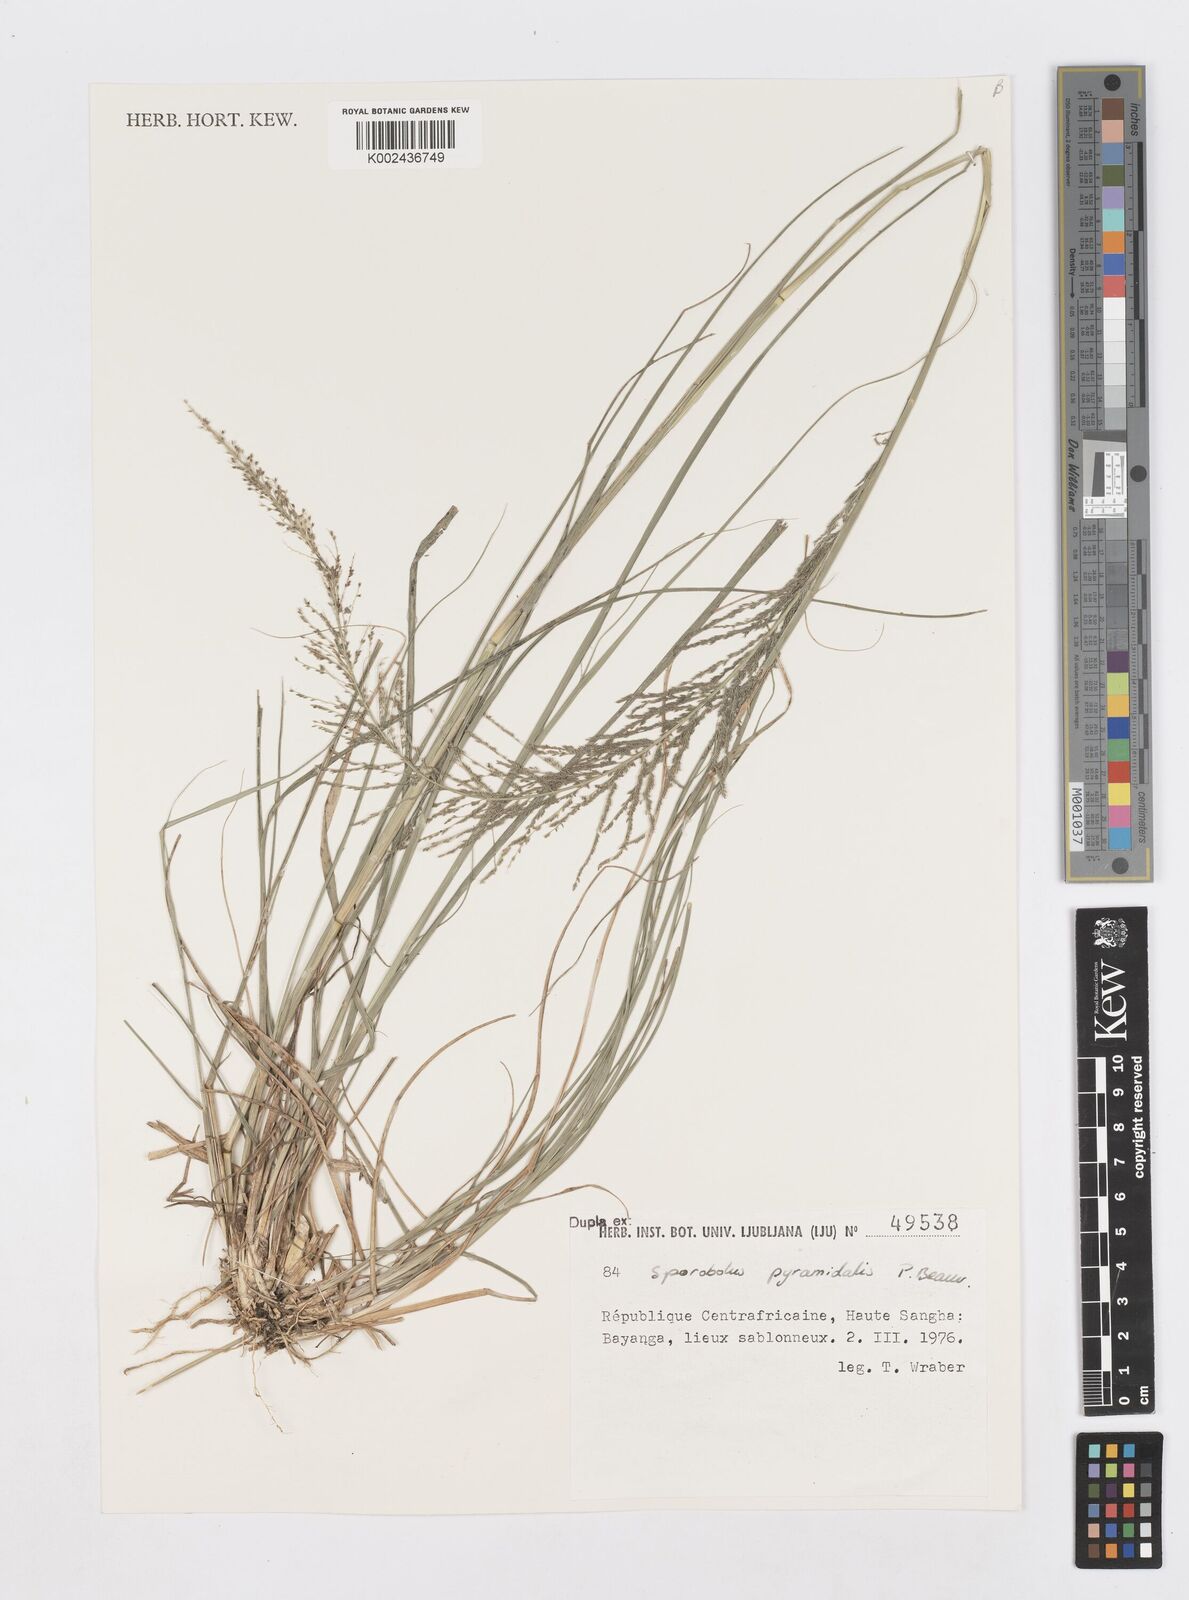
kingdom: Plantae
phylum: Tracheophyta
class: Liliopsida
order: Poales
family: Poaceae
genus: Sporobolus
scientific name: Sporobolus pyramidalis
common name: West indian dropseed
